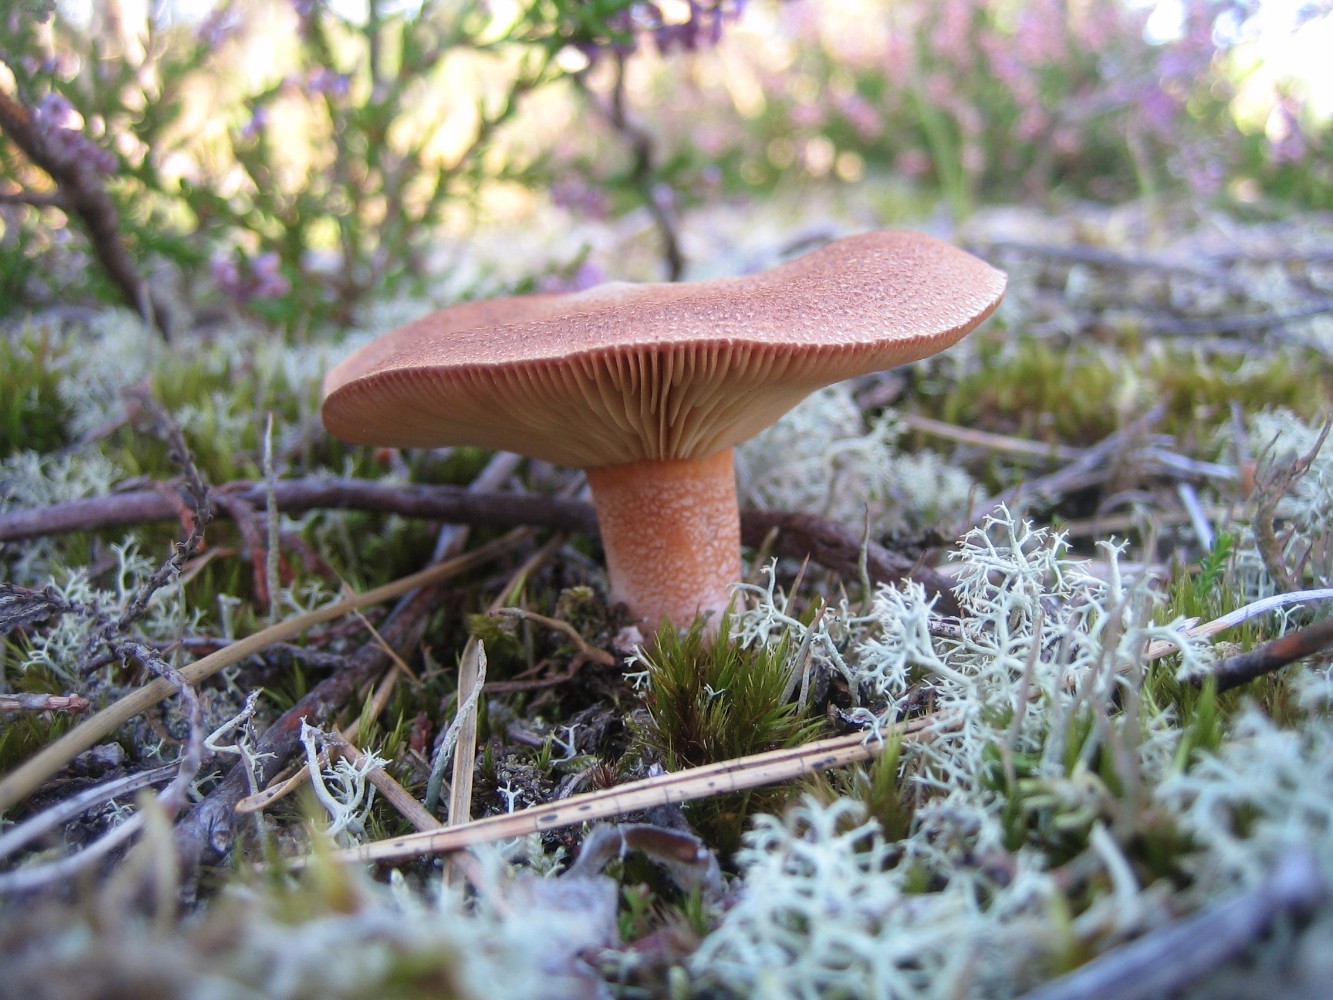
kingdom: Fungi
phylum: Basidiomycota
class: Agaricomycetes
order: Russulales
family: Russulaceae
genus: Lactarius
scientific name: Lactarius helvus
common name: mose-mælkehat
